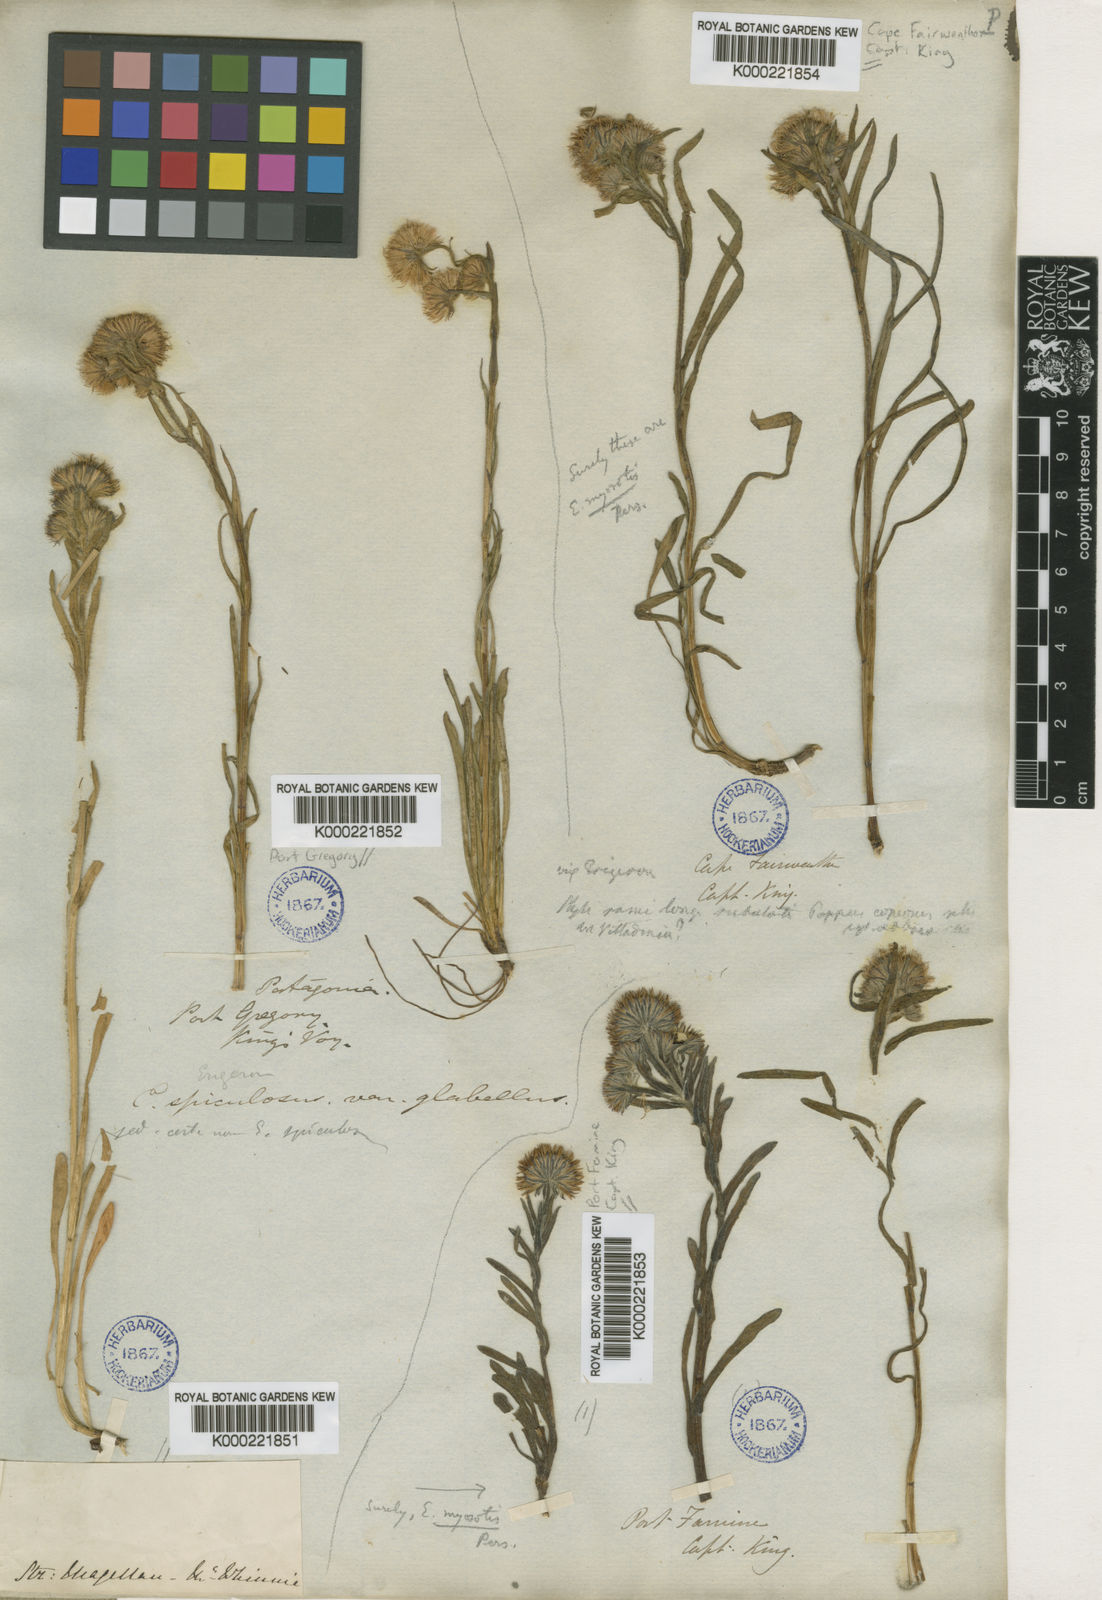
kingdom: Plantae
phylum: Tracheophyta
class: Magnoliopsida
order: Asterales
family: Asteraceae
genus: Erigeron
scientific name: Erigeron spiculosus
